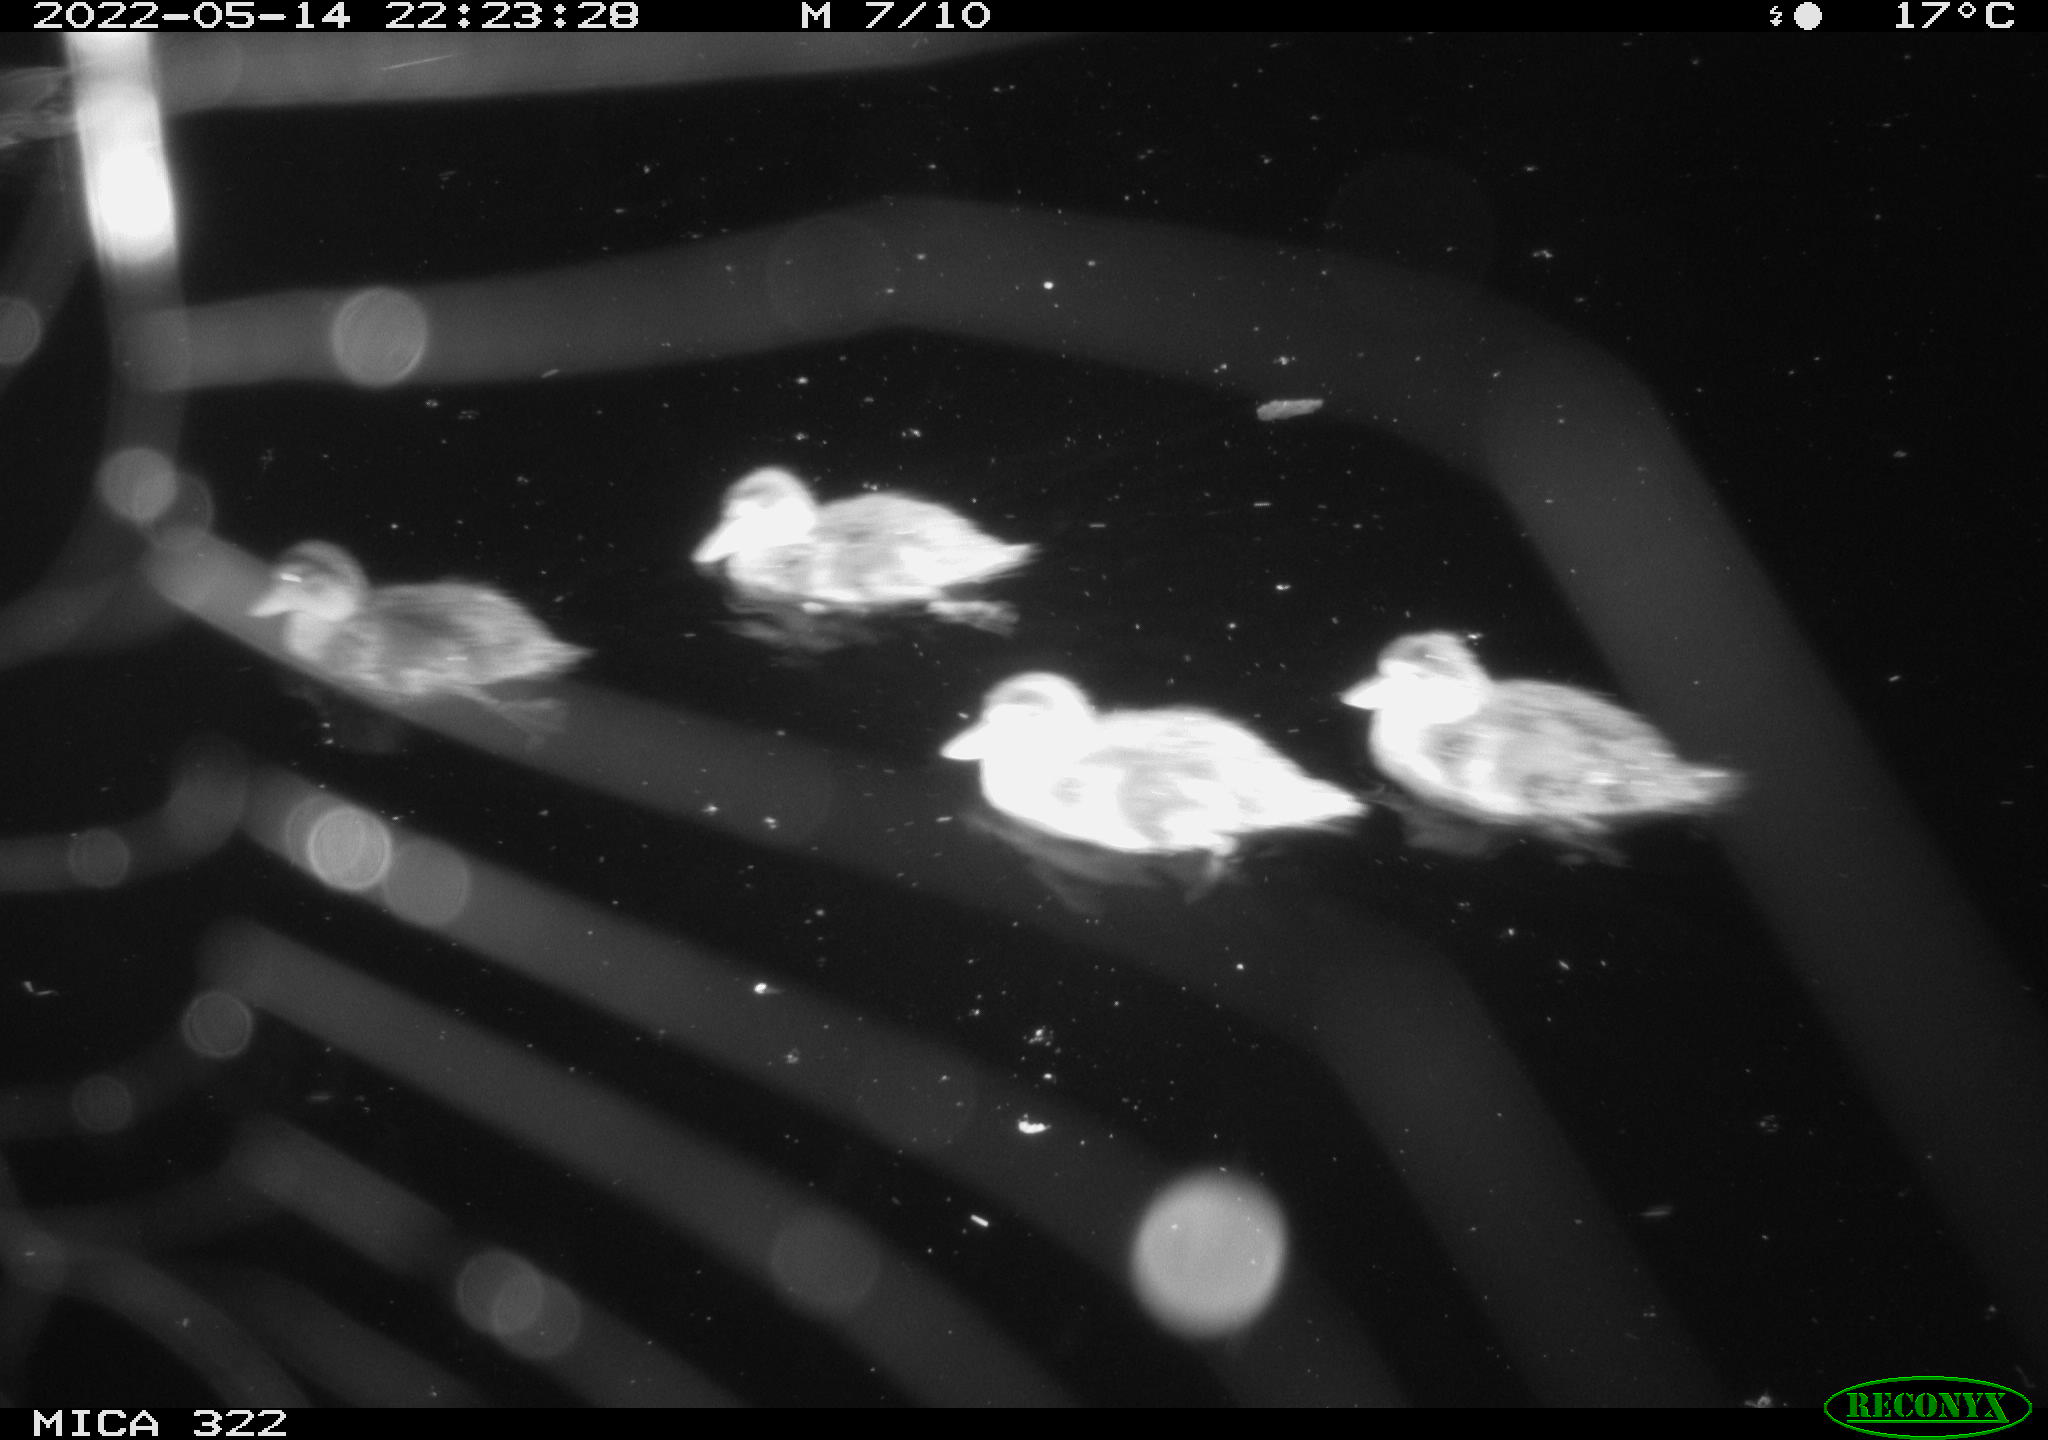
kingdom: Animalia
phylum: Chordata
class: Aves
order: Anseriformes
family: Anatidae
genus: Anas
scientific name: Anas platyrhynchos
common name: Mallard
